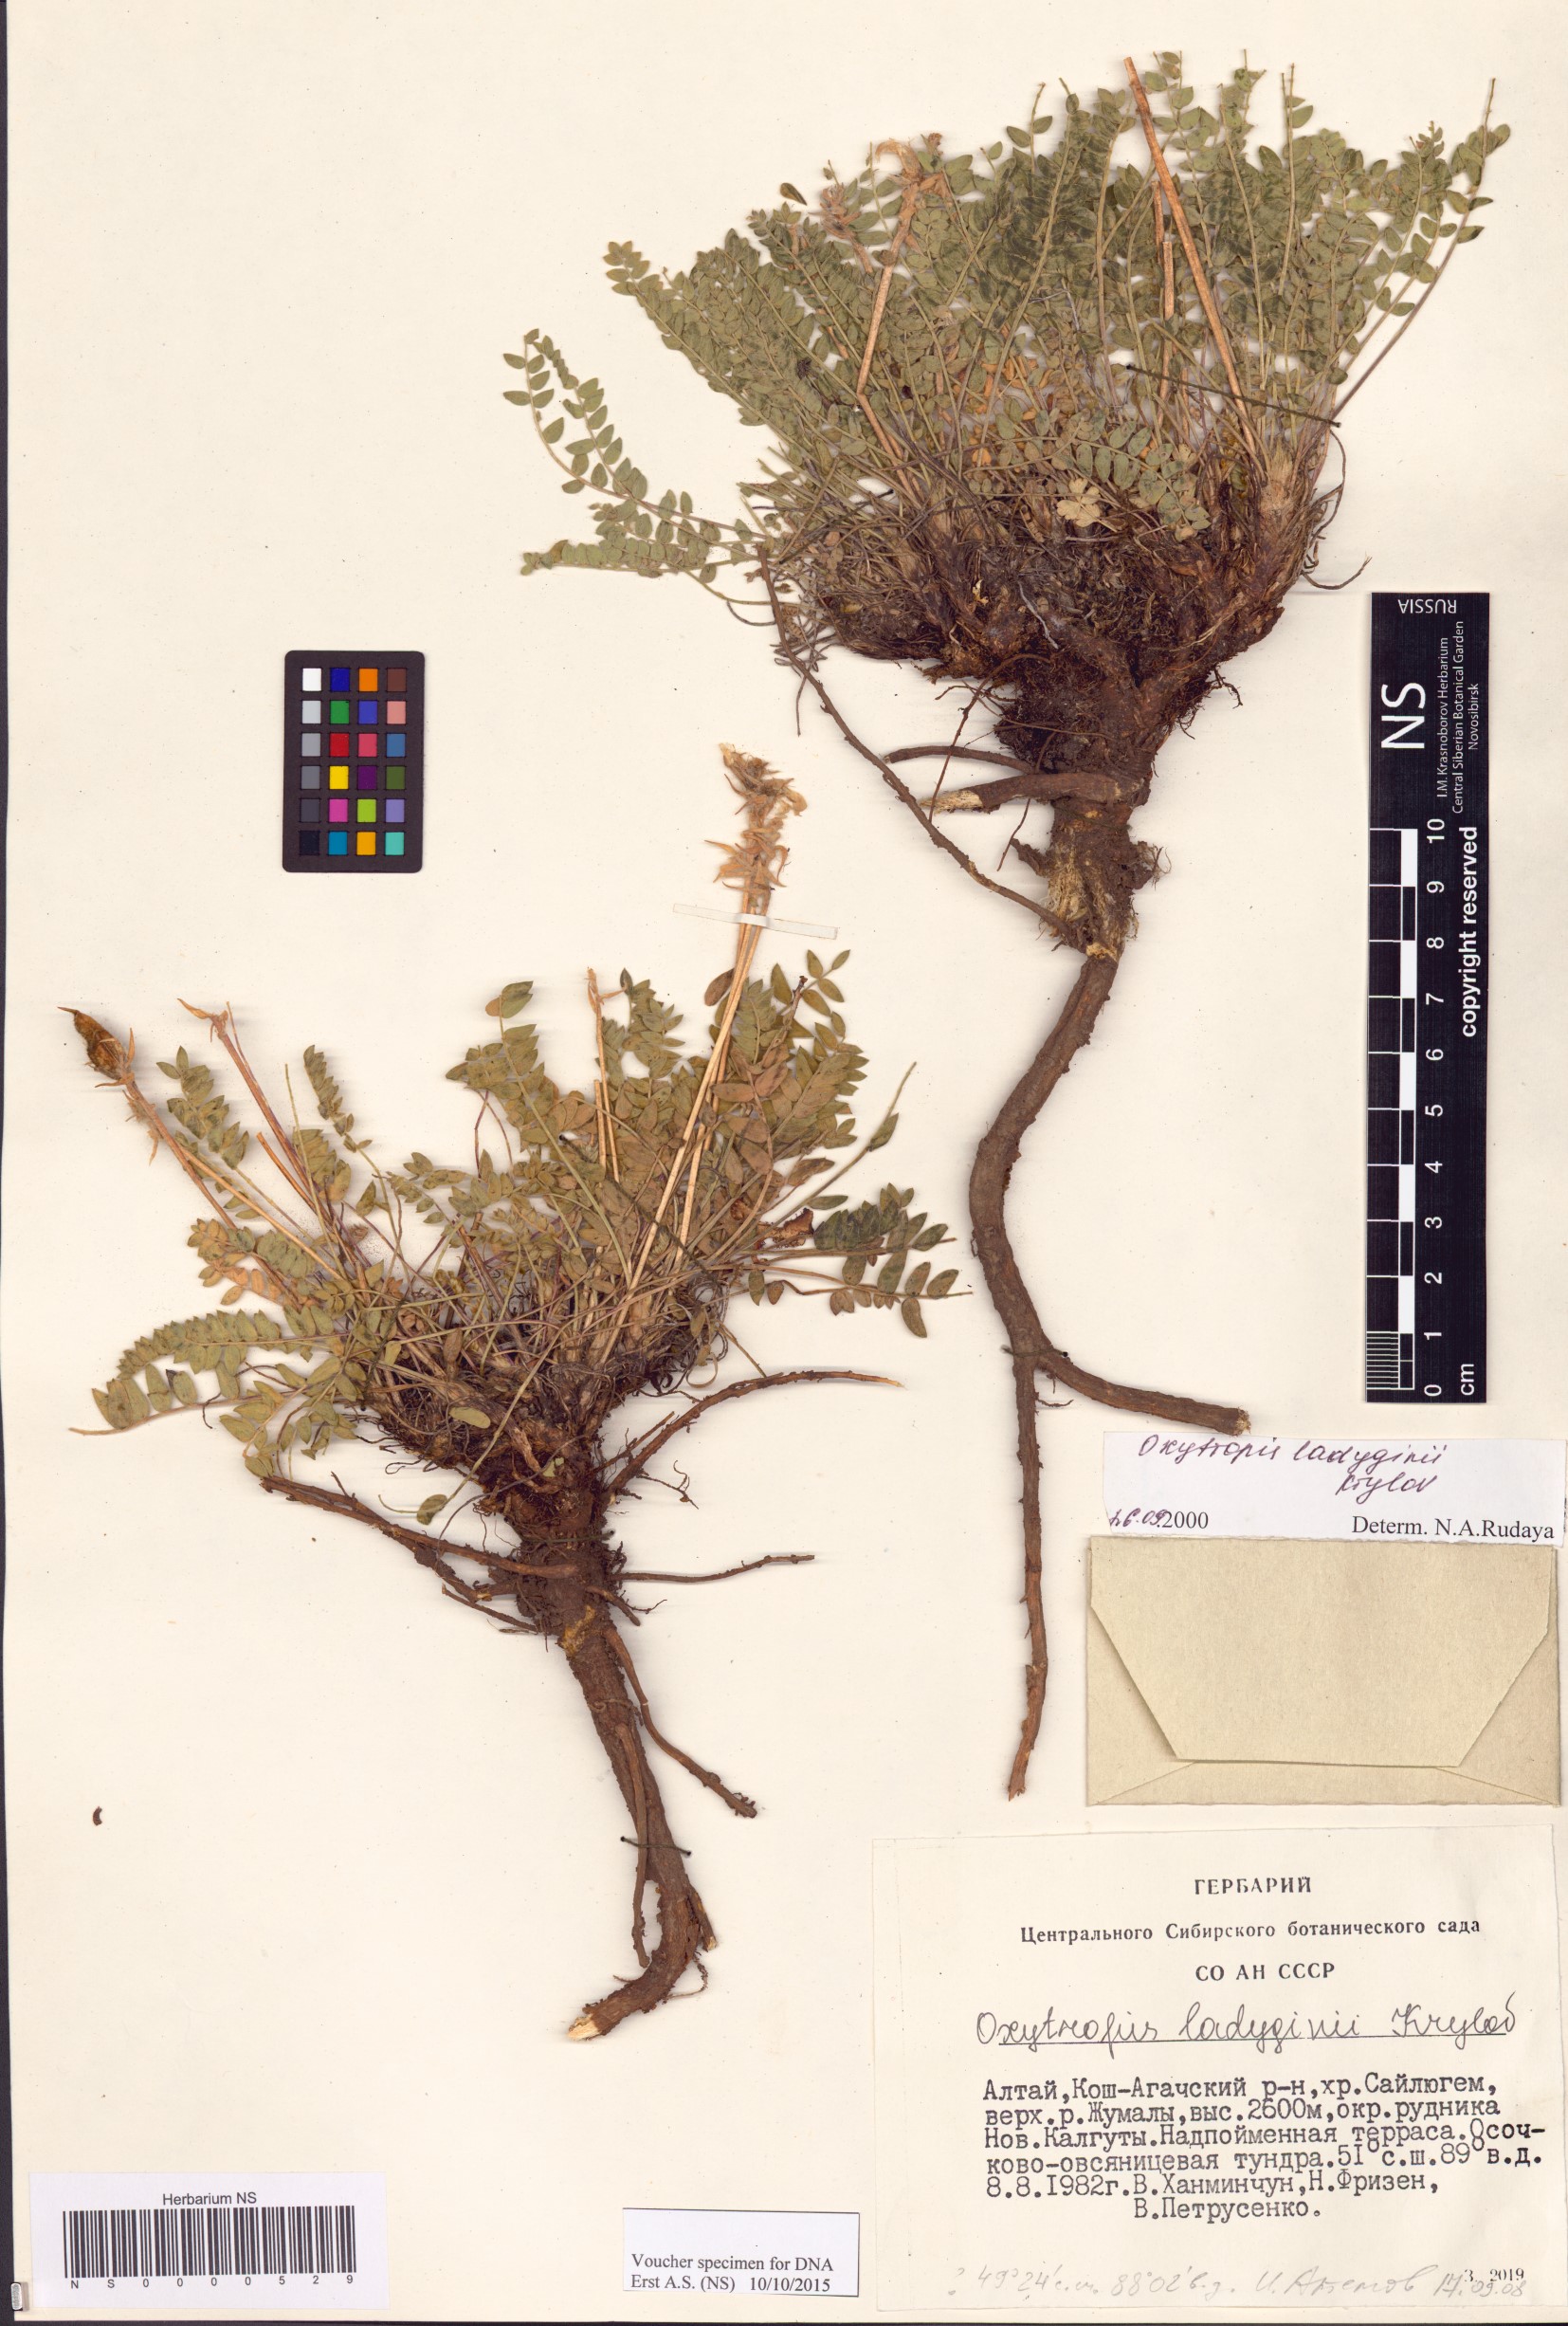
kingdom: Plantae
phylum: Tracheophyta
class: Magnoliopsida
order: Fabales
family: Fabaceae
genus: Oxytropis
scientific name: Oxytropis ladyginii
